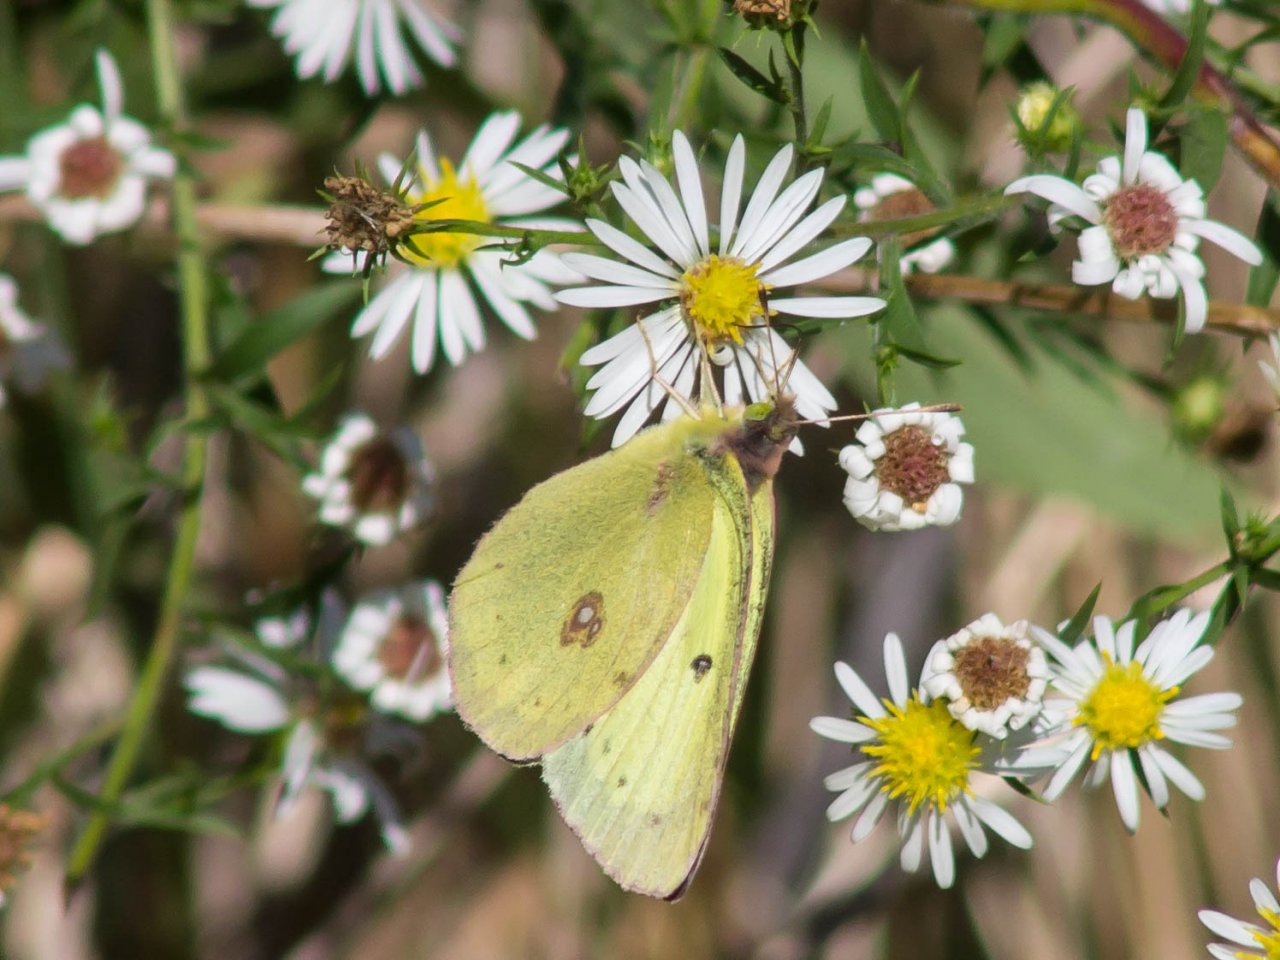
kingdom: Animalia
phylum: Arthropoda
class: Insecta
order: Lepidoptera
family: Pieridae
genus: Colias
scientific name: Colias philodice
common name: Clouded Sulphur
